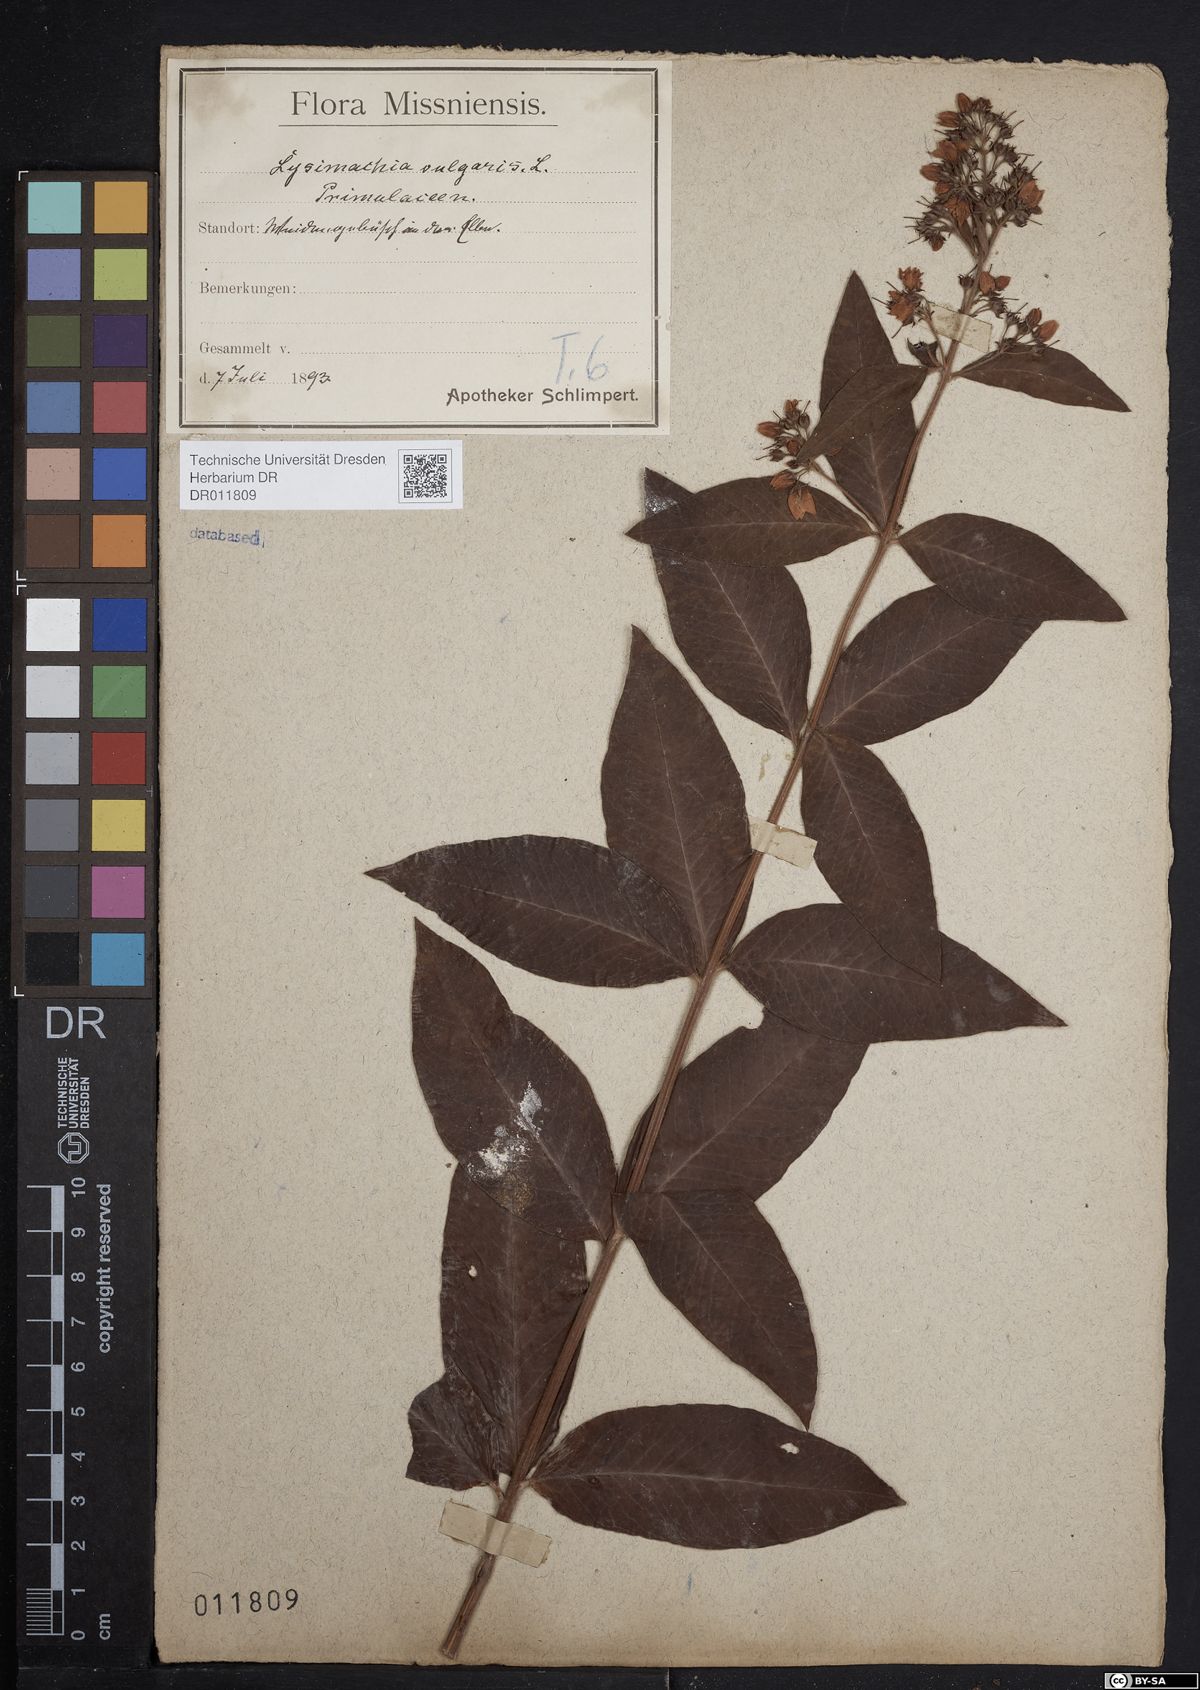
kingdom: Plantae
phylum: Tracheophyta
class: Magnoliopsida
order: Ericales
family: Primulaceae
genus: Lysimachia
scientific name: Lysimachia vulgaris
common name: Yellow loosestrife
